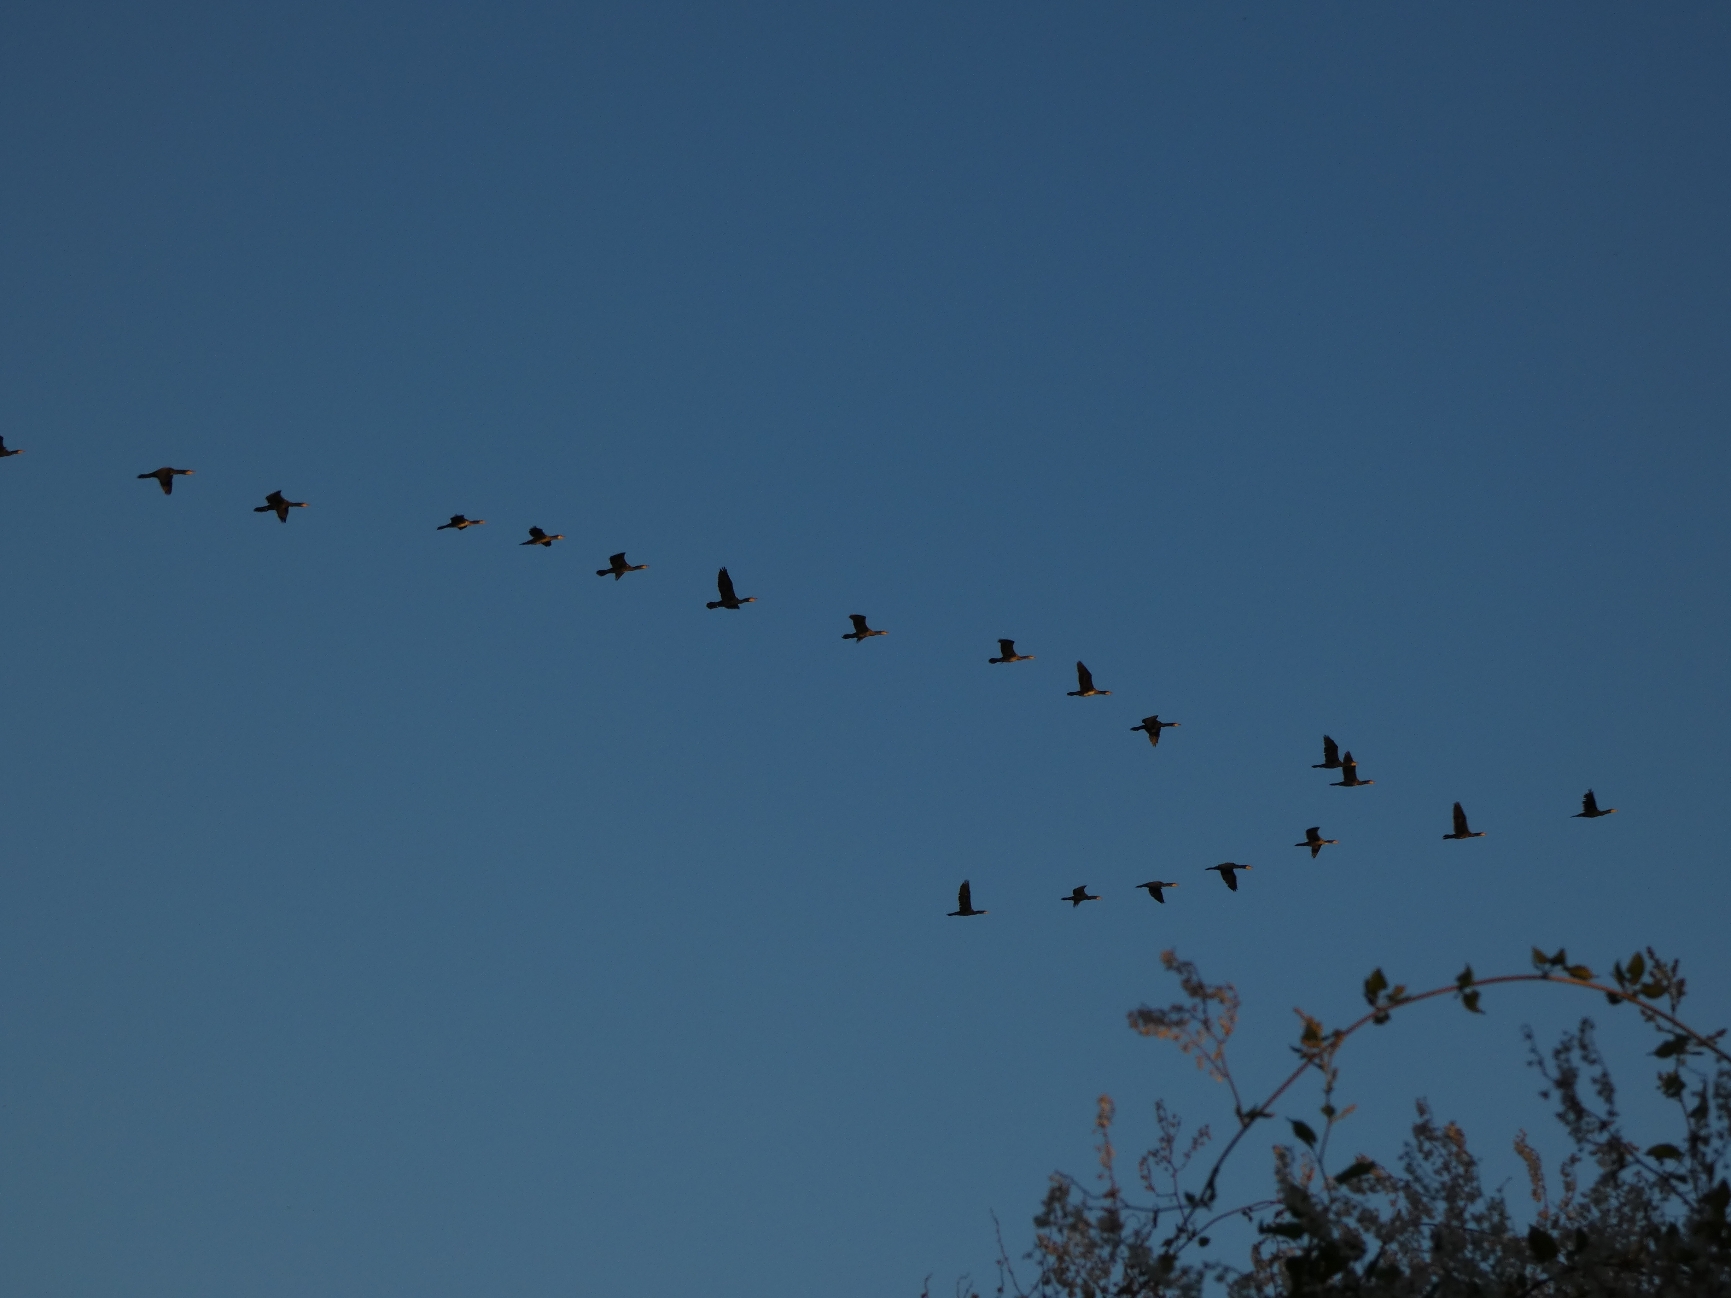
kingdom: Animalia
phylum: Chordata
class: Aves
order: Suliformes
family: Phalacrocoracidae
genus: Phalacrocorax
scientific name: Phalacrocorax carbo
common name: Skarv
